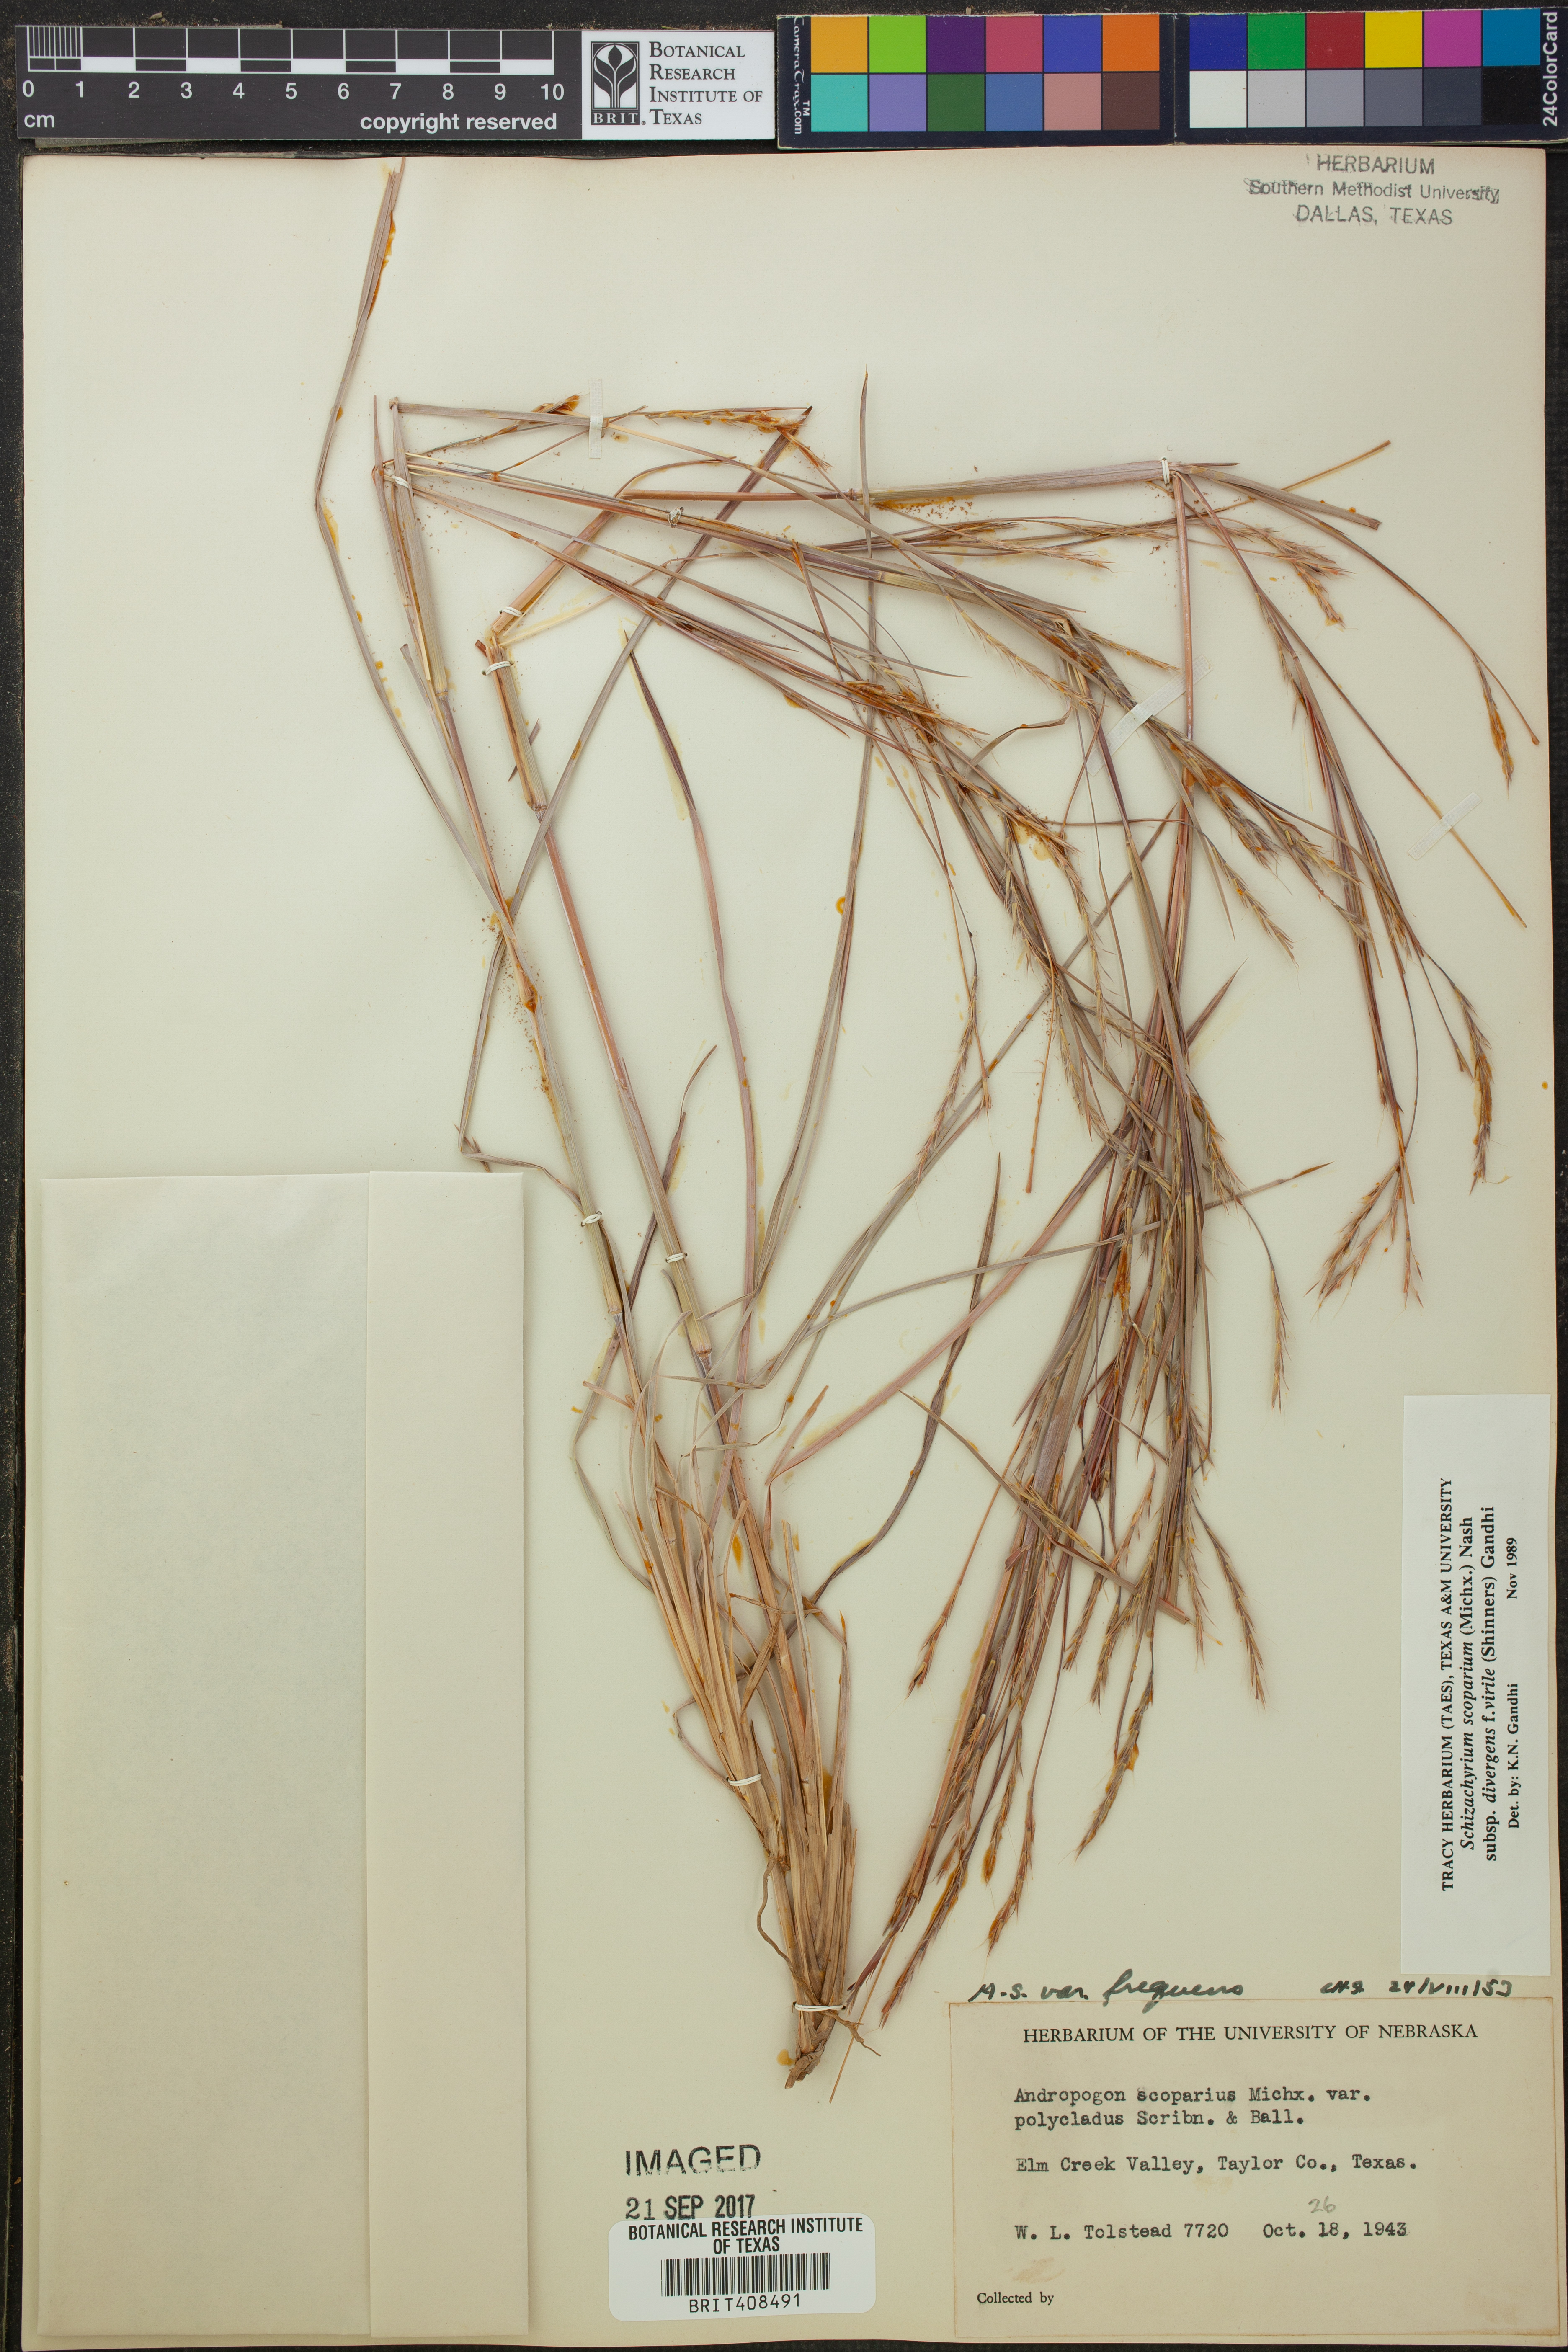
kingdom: Plantae
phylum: Tracheophyta
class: Liliopsida
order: Poales
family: Poaceae
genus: Schizachyrium
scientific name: Schizachyrium scoparium
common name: Little bluestem
